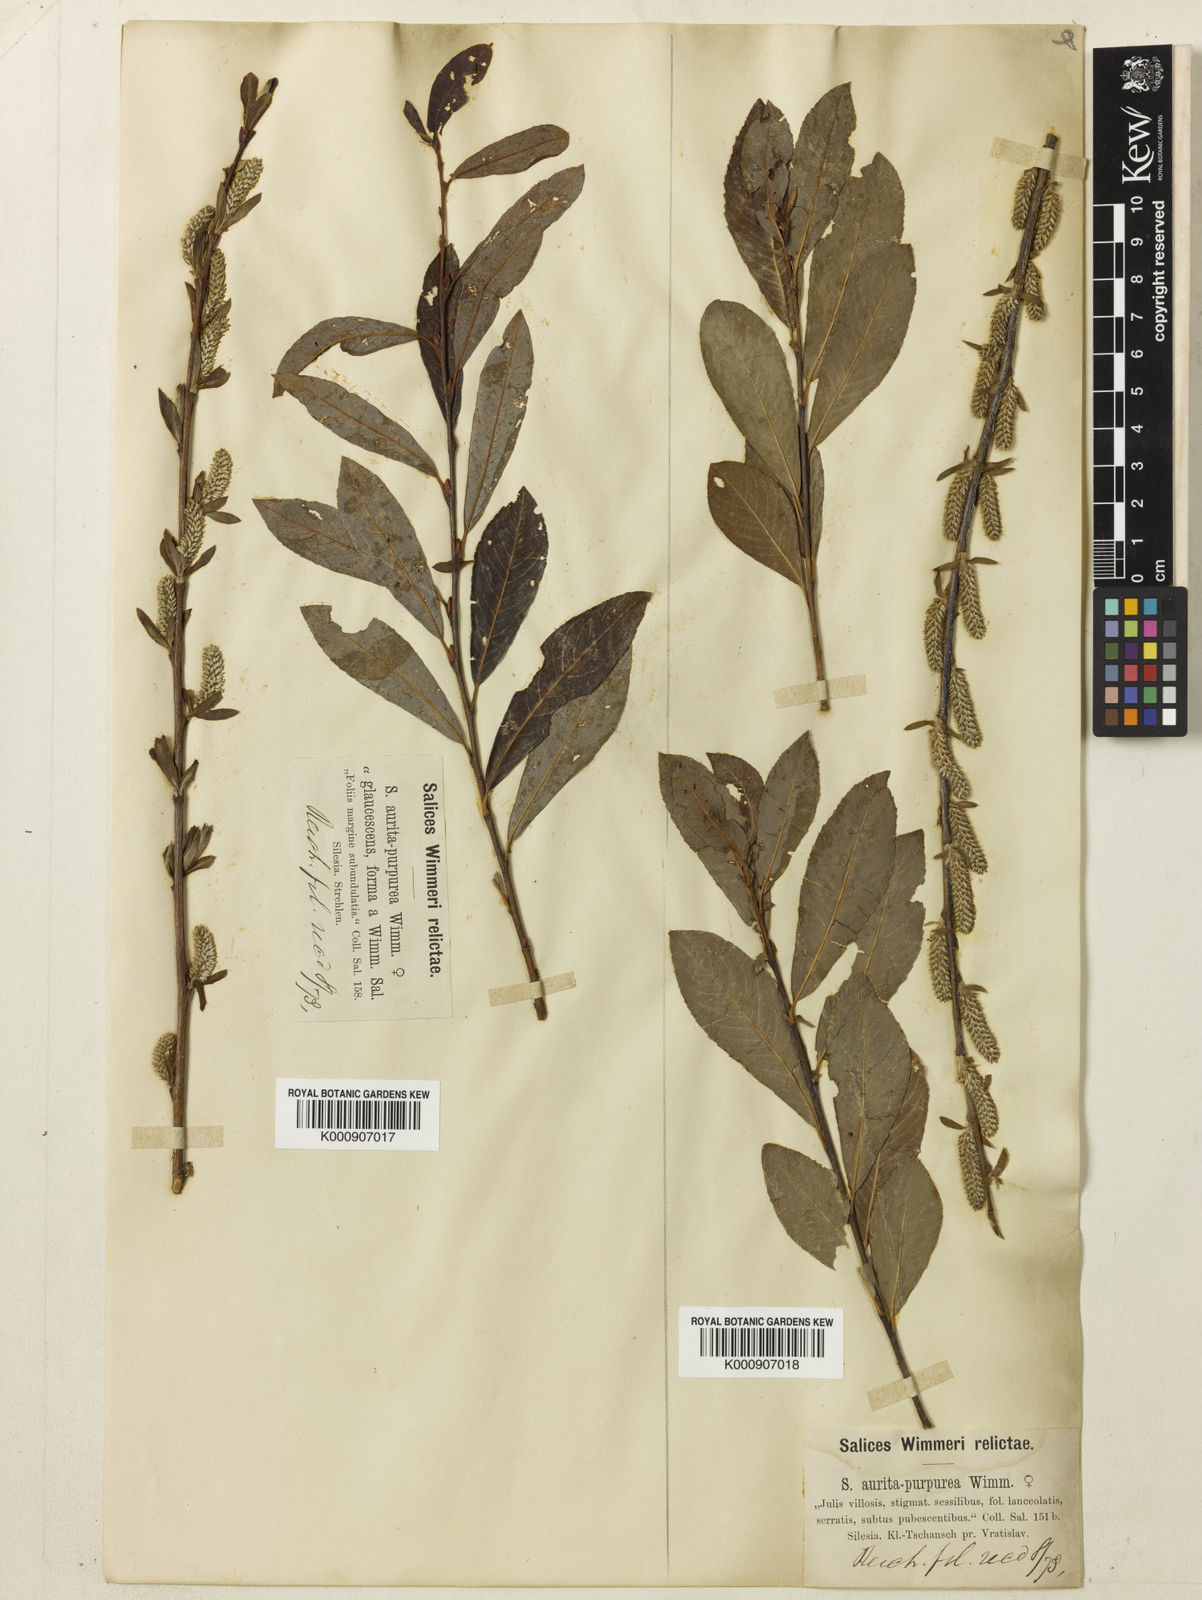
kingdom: Plantae
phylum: Tracheophyta
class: Magnoliopsida
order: Malpighiales
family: Salicaceae
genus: Salix
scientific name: Salix aurita
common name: Eared willow
